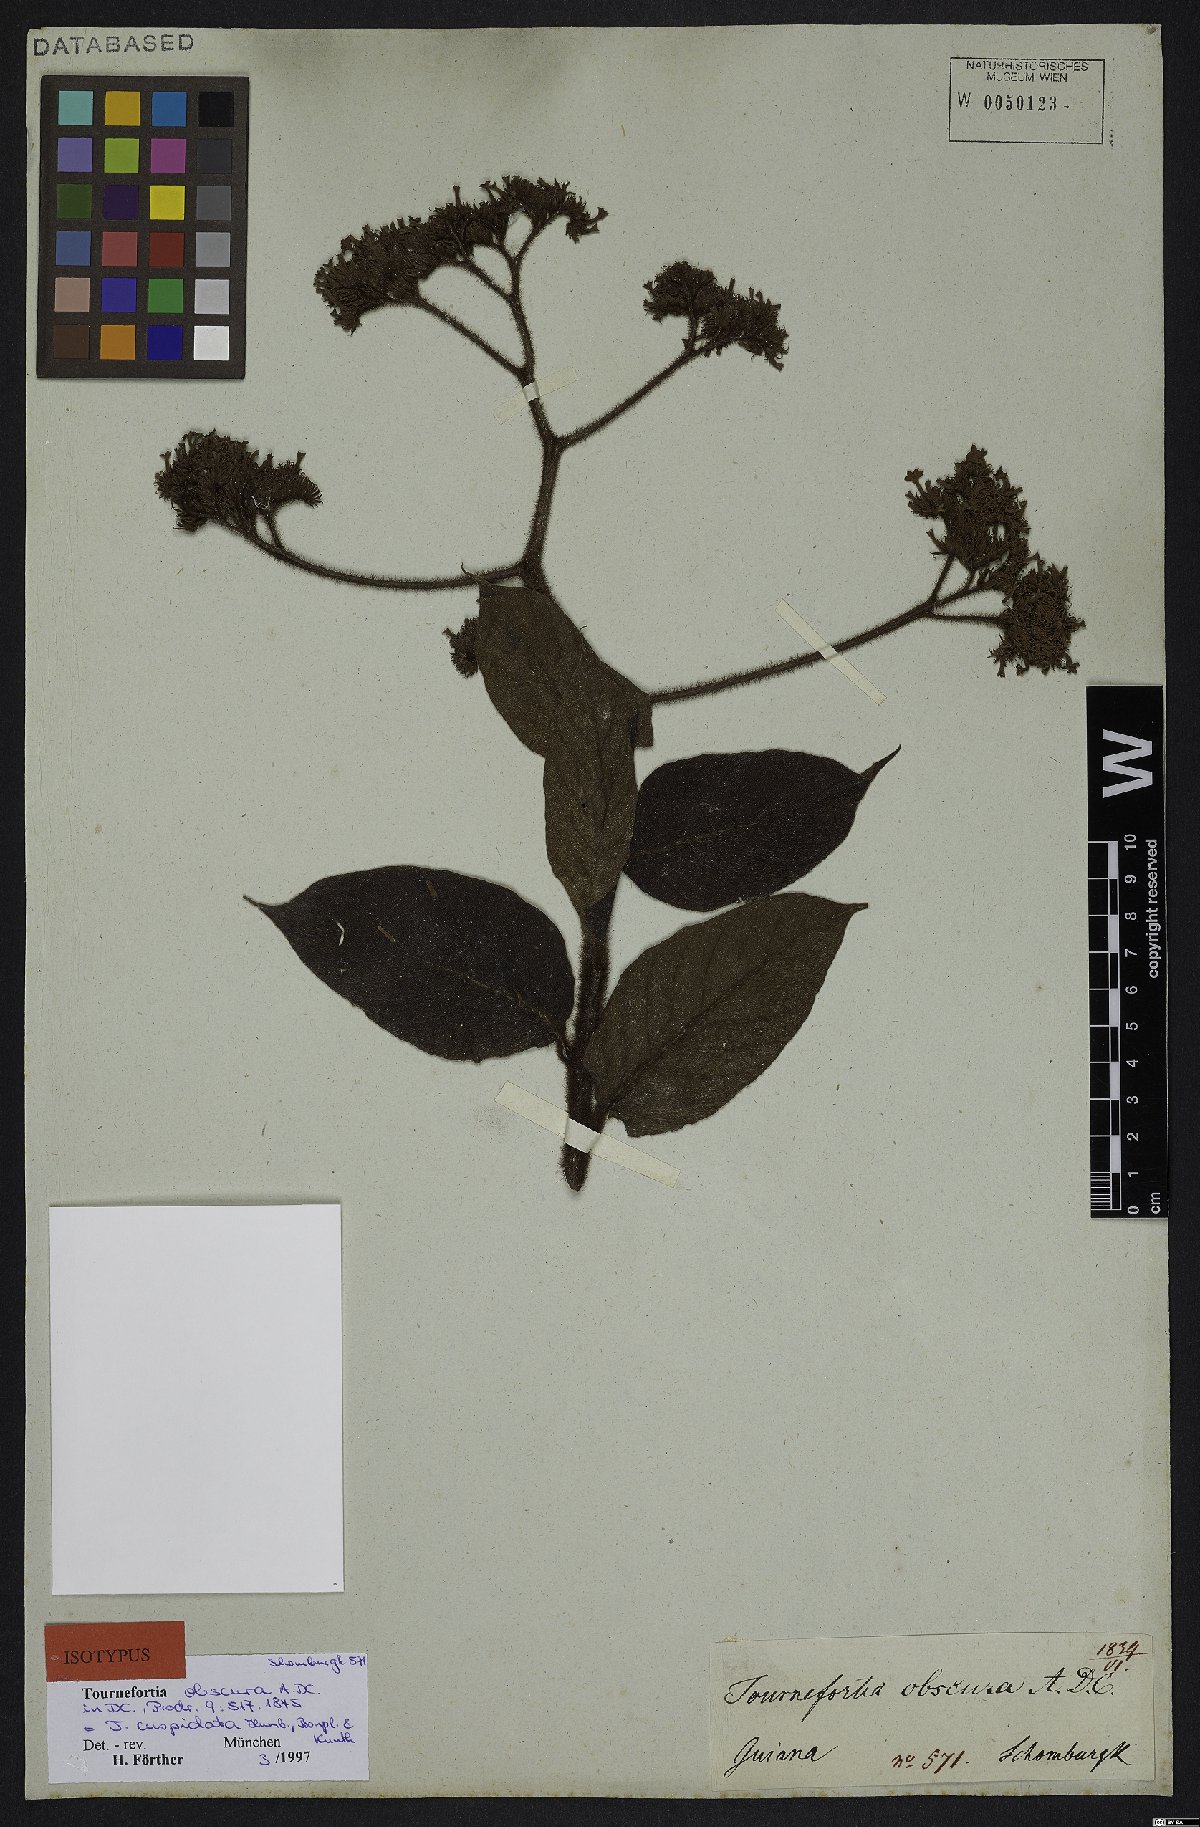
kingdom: Plantae
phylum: Tracheophyta
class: Magnoliopsida
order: Boraginales
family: Heliotropiaceae
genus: Heliotropium
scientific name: Heliotropium cuspidatum
